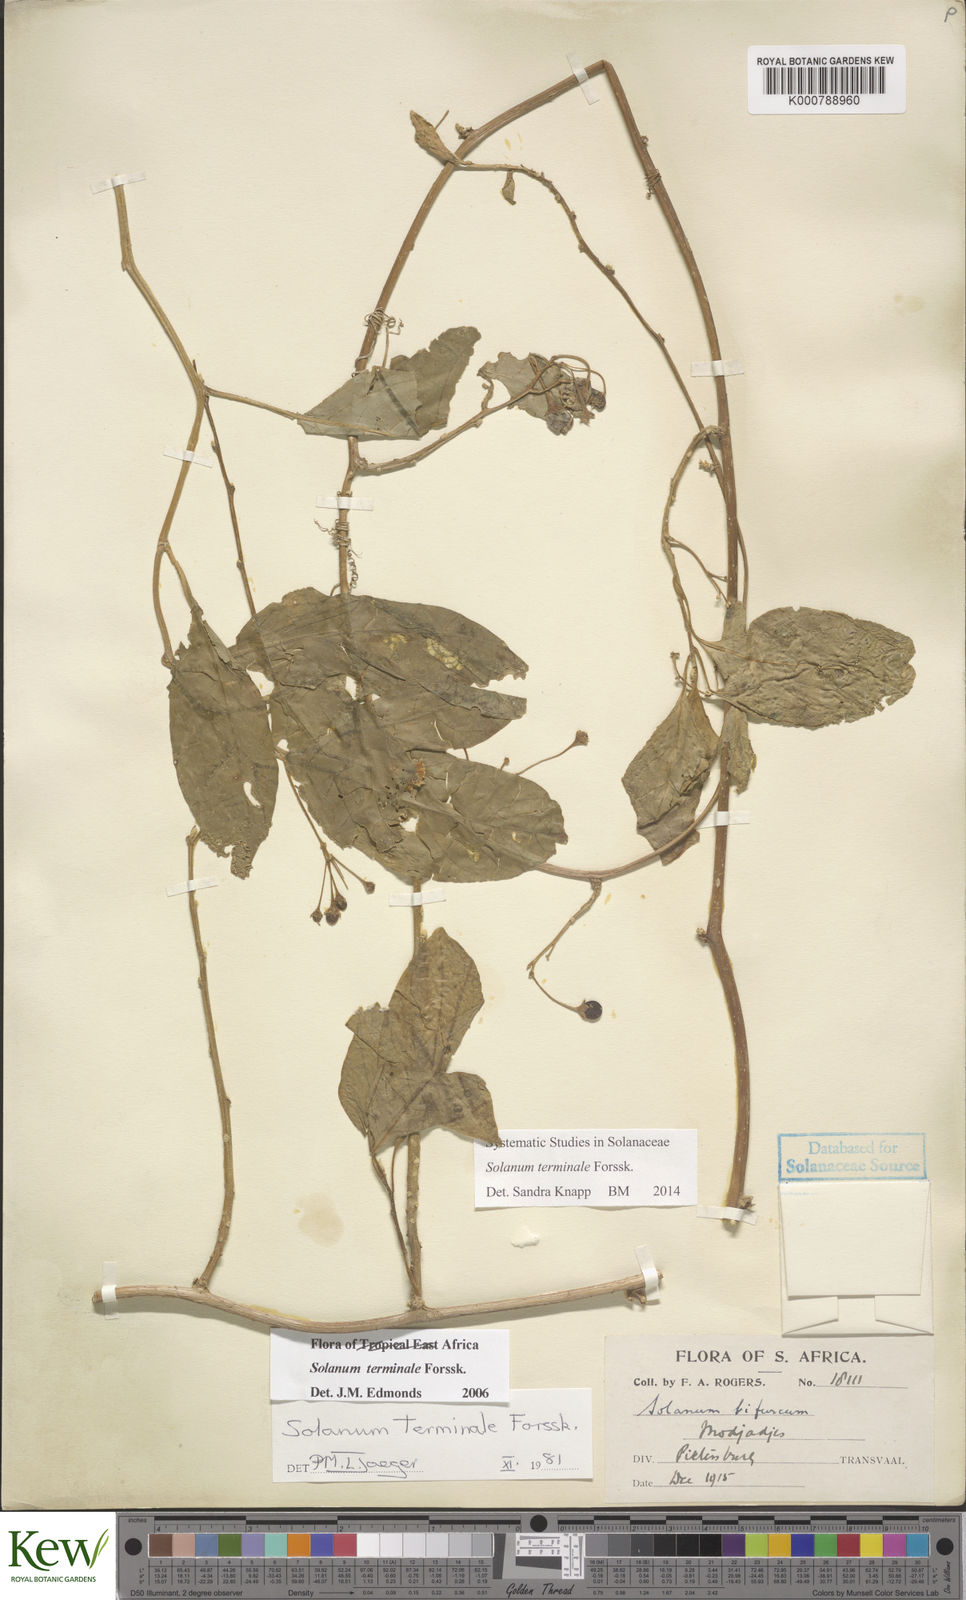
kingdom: Plantae
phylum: Tracheophyta
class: Magnoliopsida
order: Solanales
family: Solanaceae
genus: Solanum
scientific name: Solanum terminale
